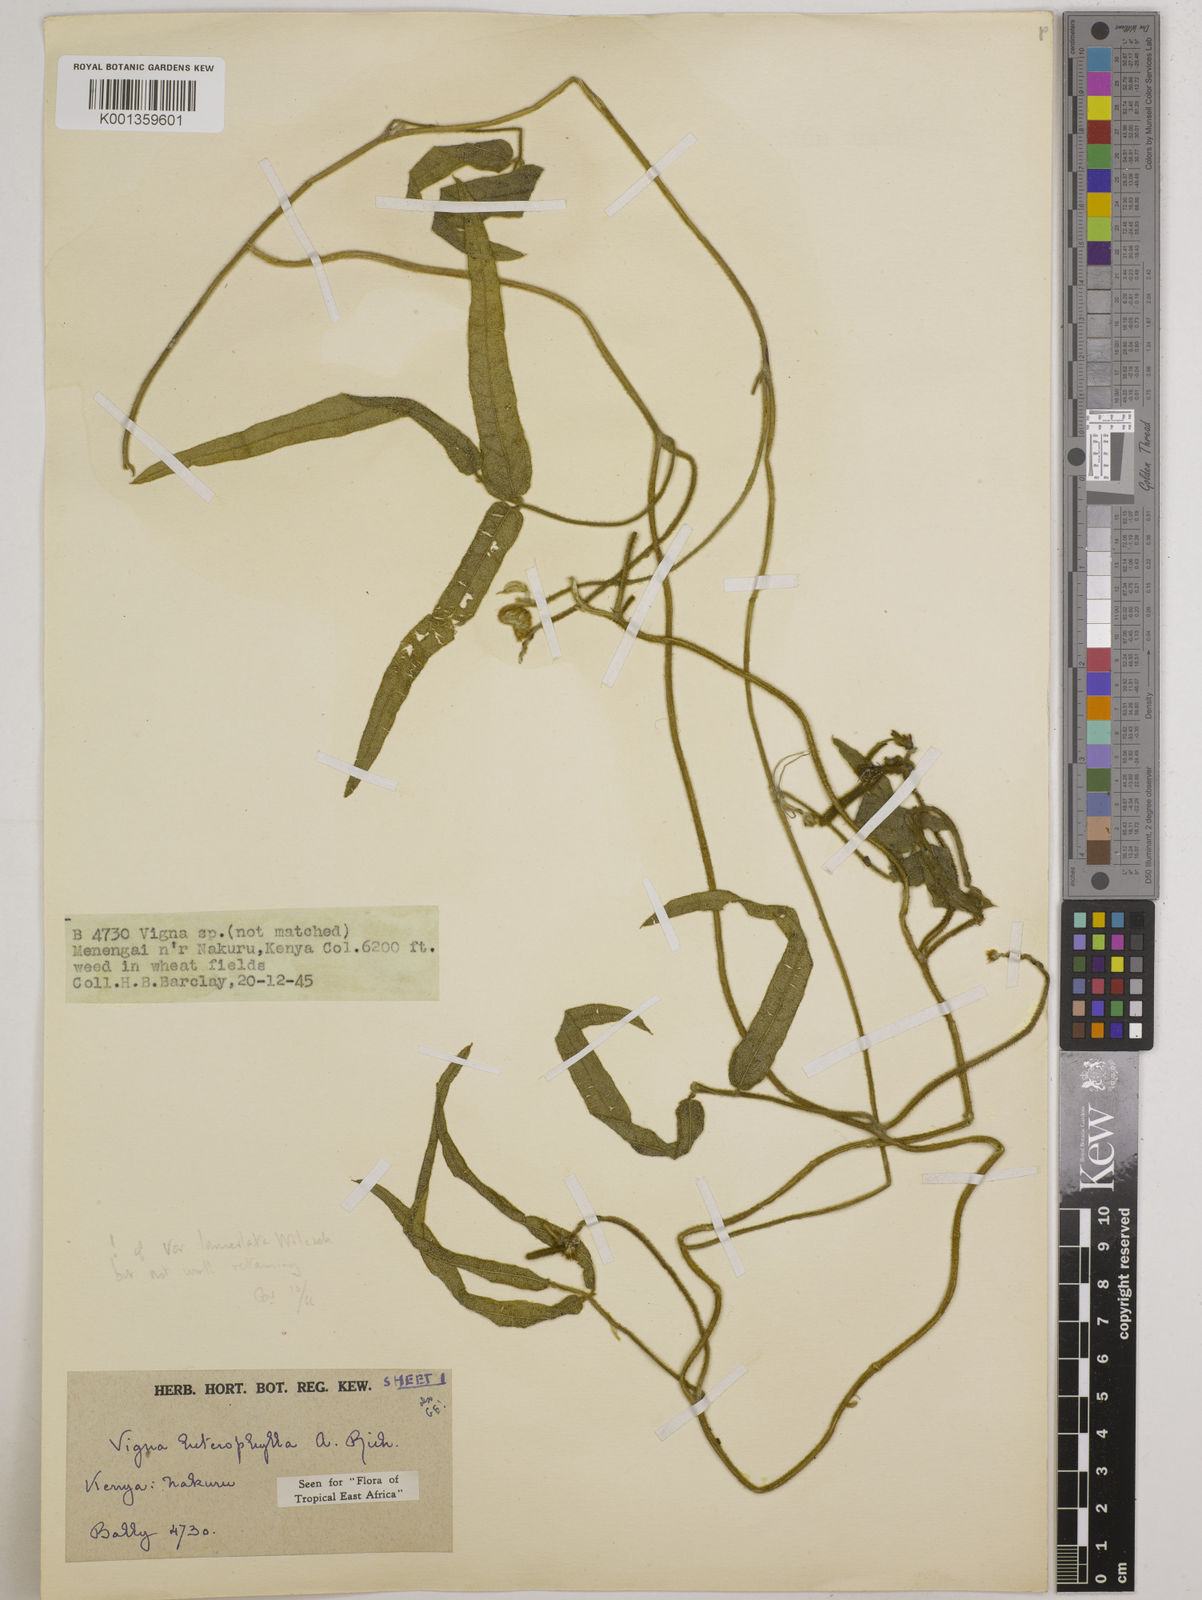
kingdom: Plantae
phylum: Tracheophyta
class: Magnoliopsida
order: Fabales
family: Fabaceae
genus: Vigna
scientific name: Vigna heterophylla
